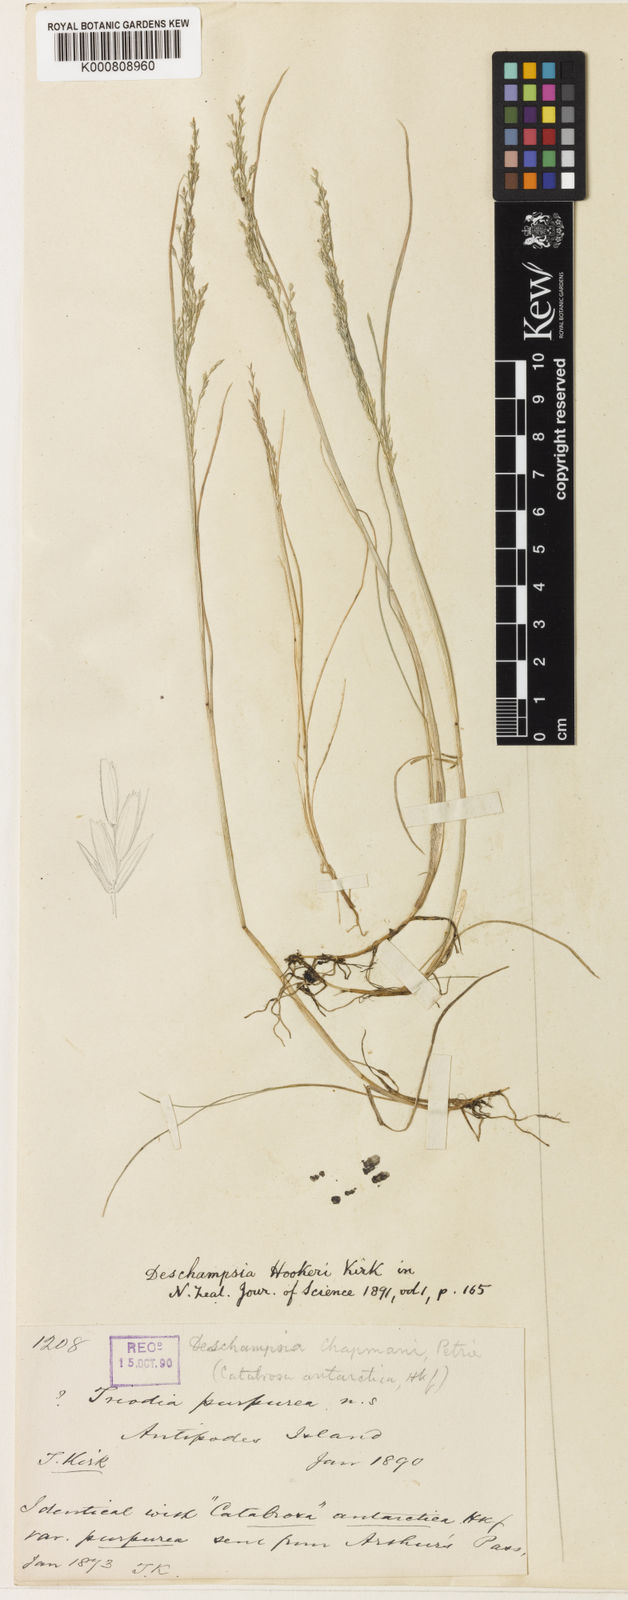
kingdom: Plantae
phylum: Tracheophyta
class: Liliopsida
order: Poales
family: Poaceae
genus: Deschampsia
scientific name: Deschampsia chapmanii
